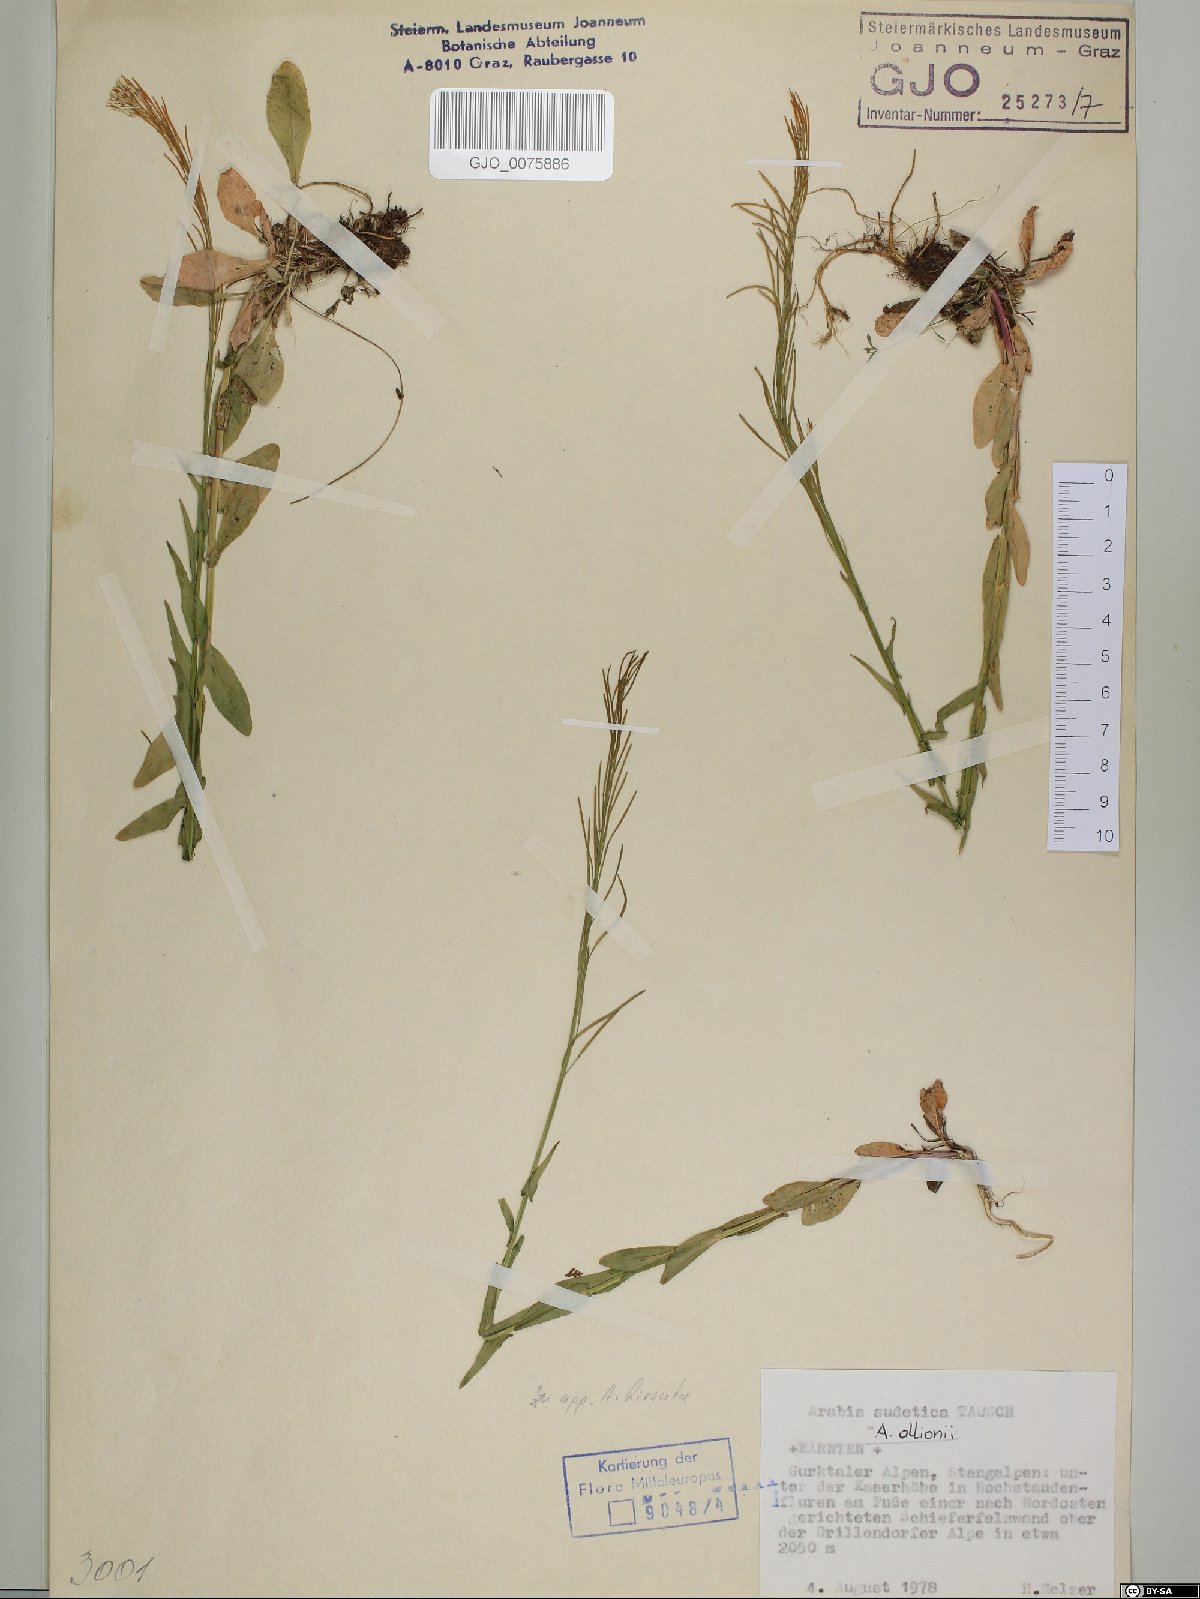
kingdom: Plantae
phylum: Tracheophyta
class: Magnoliopsida
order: Brassicales
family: Brassicaceae
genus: Arabis
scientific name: Arabis sudetica
